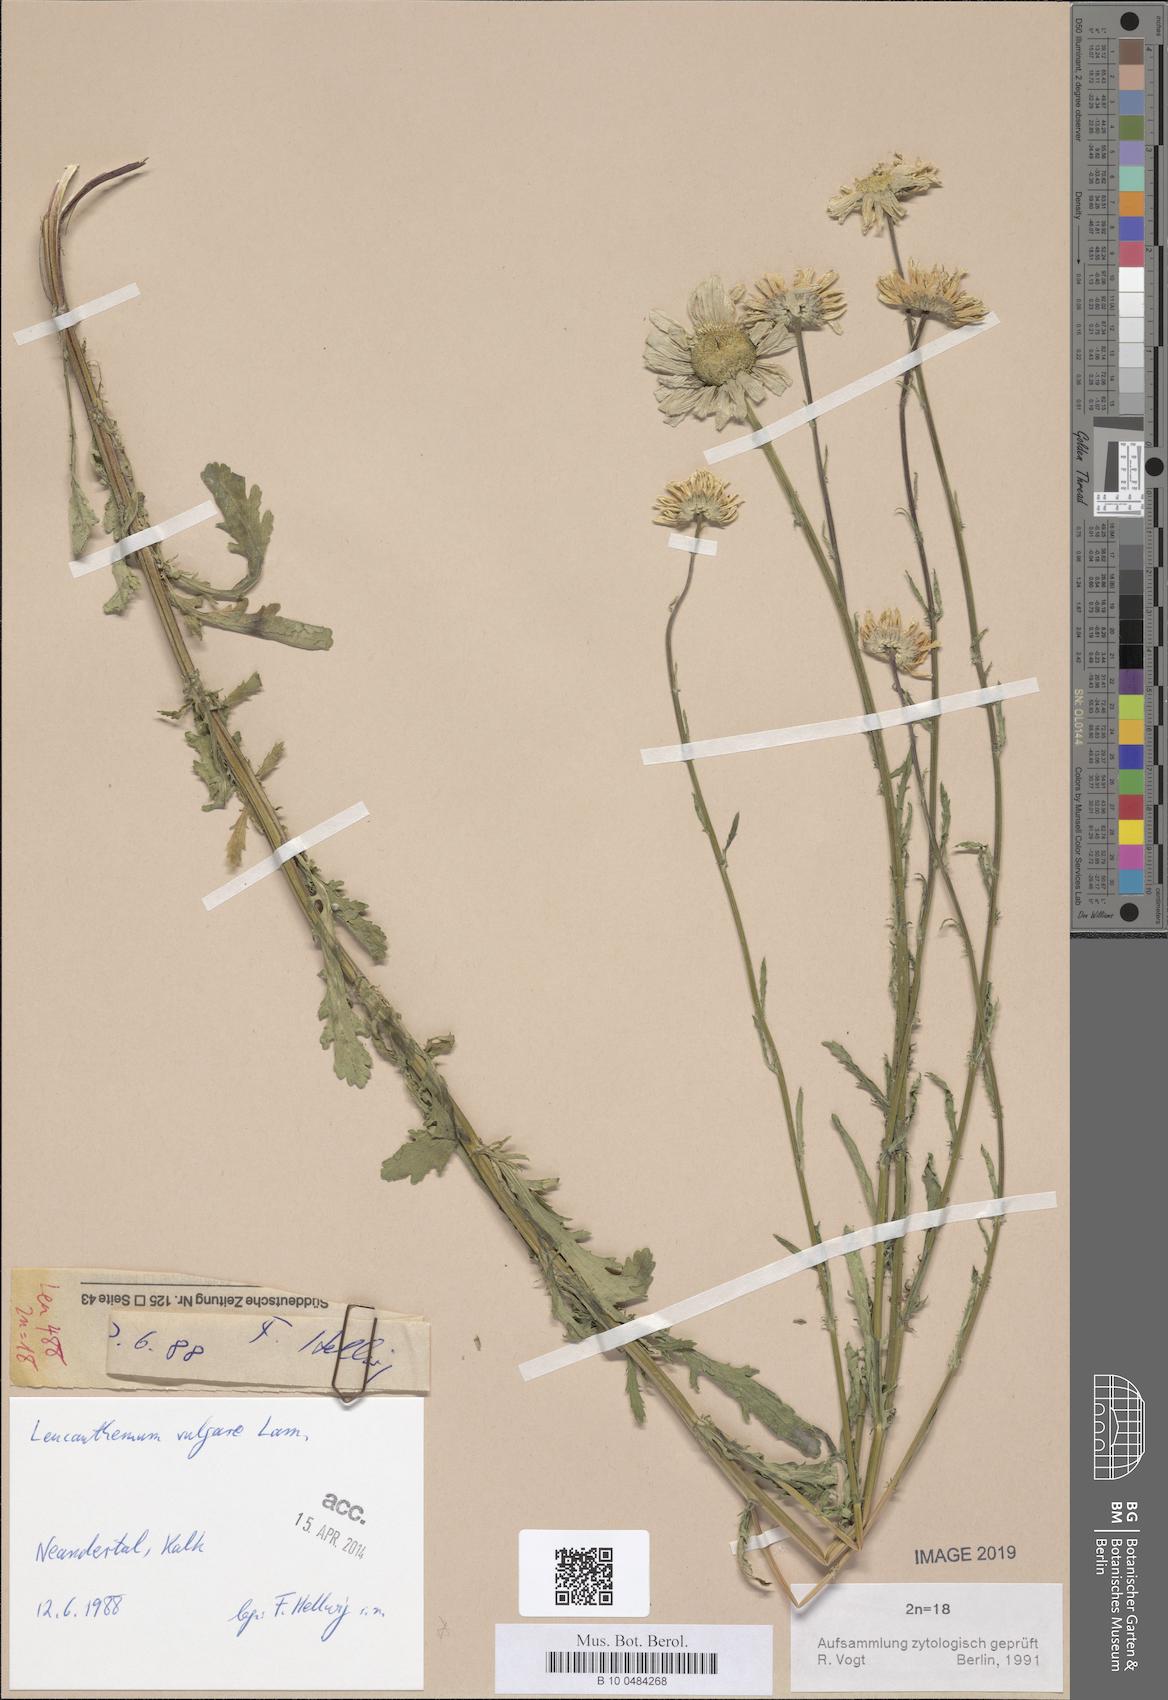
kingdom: Plantae
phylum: Tracheophyta
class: Magnoliopsida
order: Asterales
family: Asteraceae
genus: Leucanthemum
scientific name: Leucanthemum vulgare
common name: Oxeye daisy
